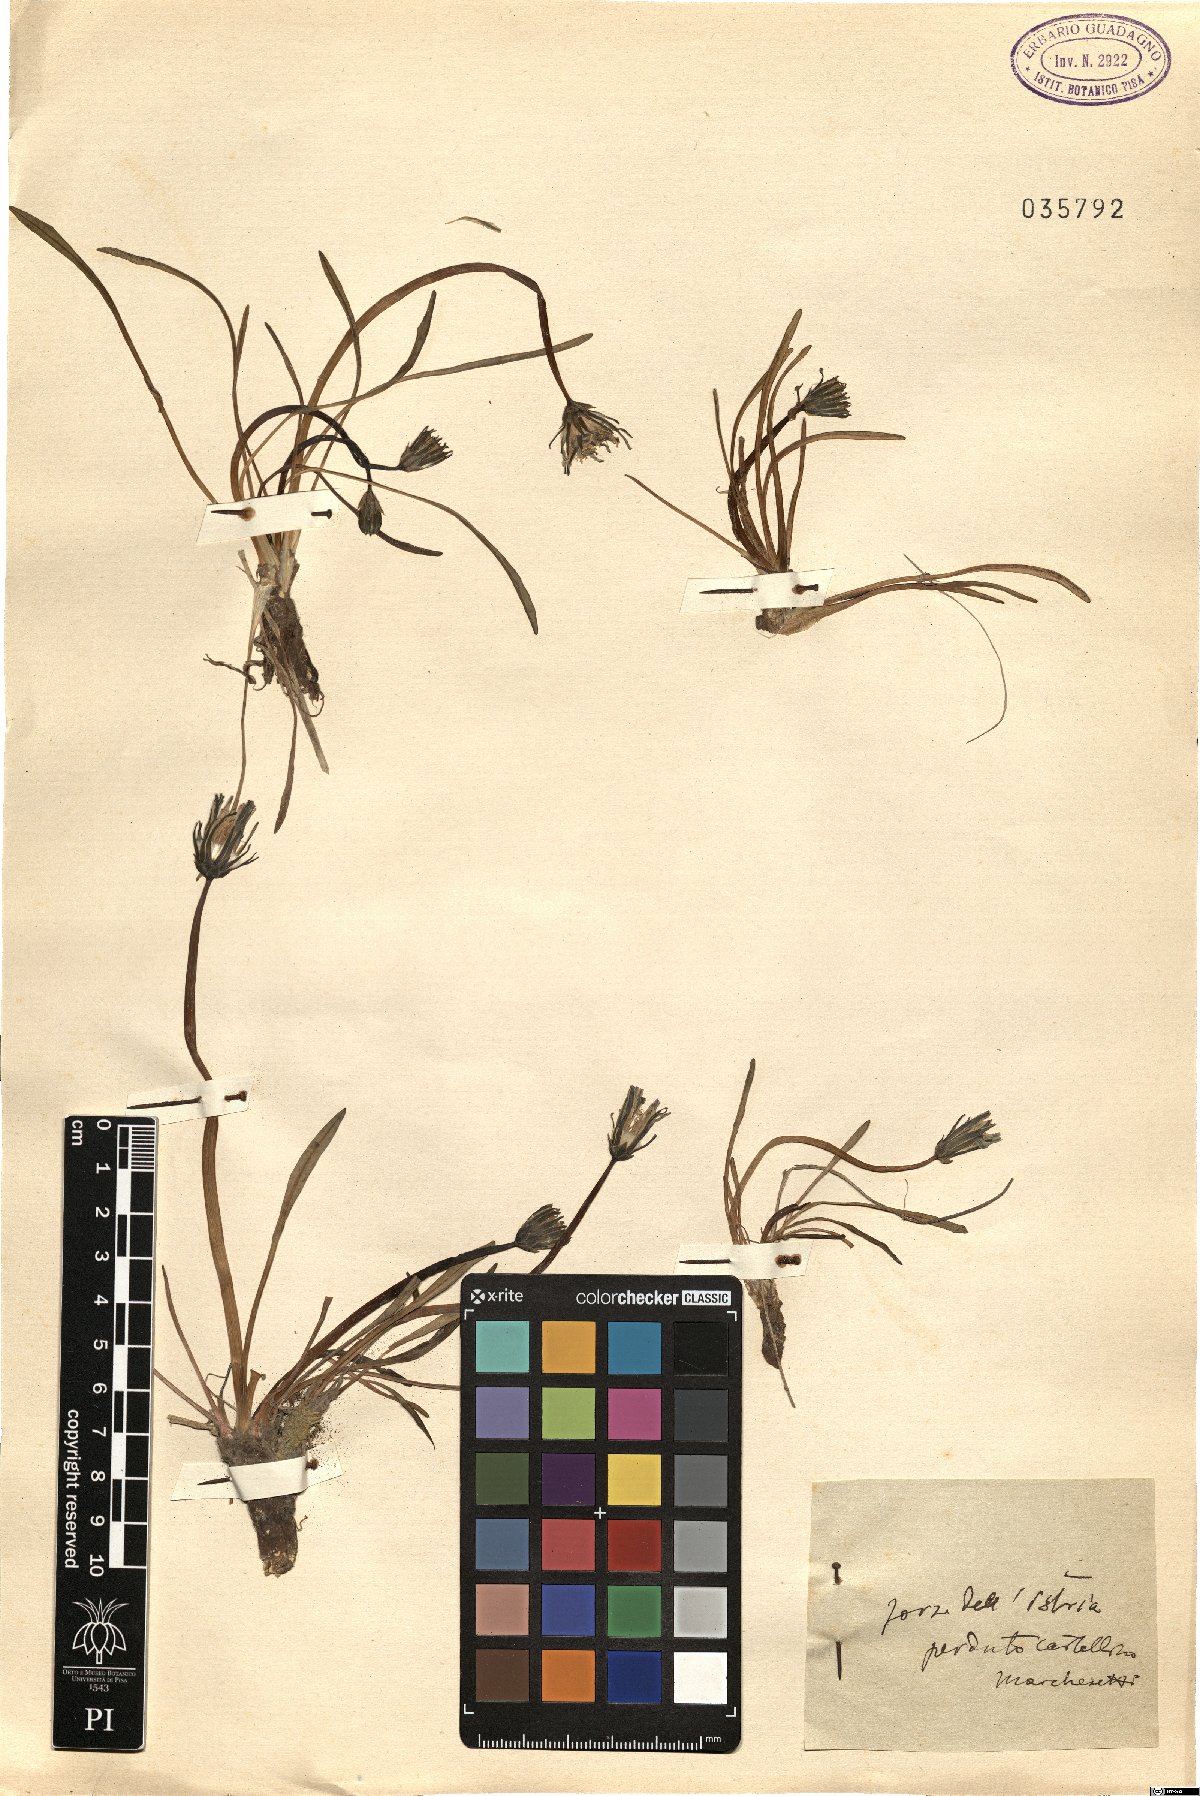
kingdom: Plantae
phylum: Tracheophyta
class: Magnoliopsida
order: Asterales
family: Asteraceae
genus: Taraxacum
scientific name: Taraxacum
